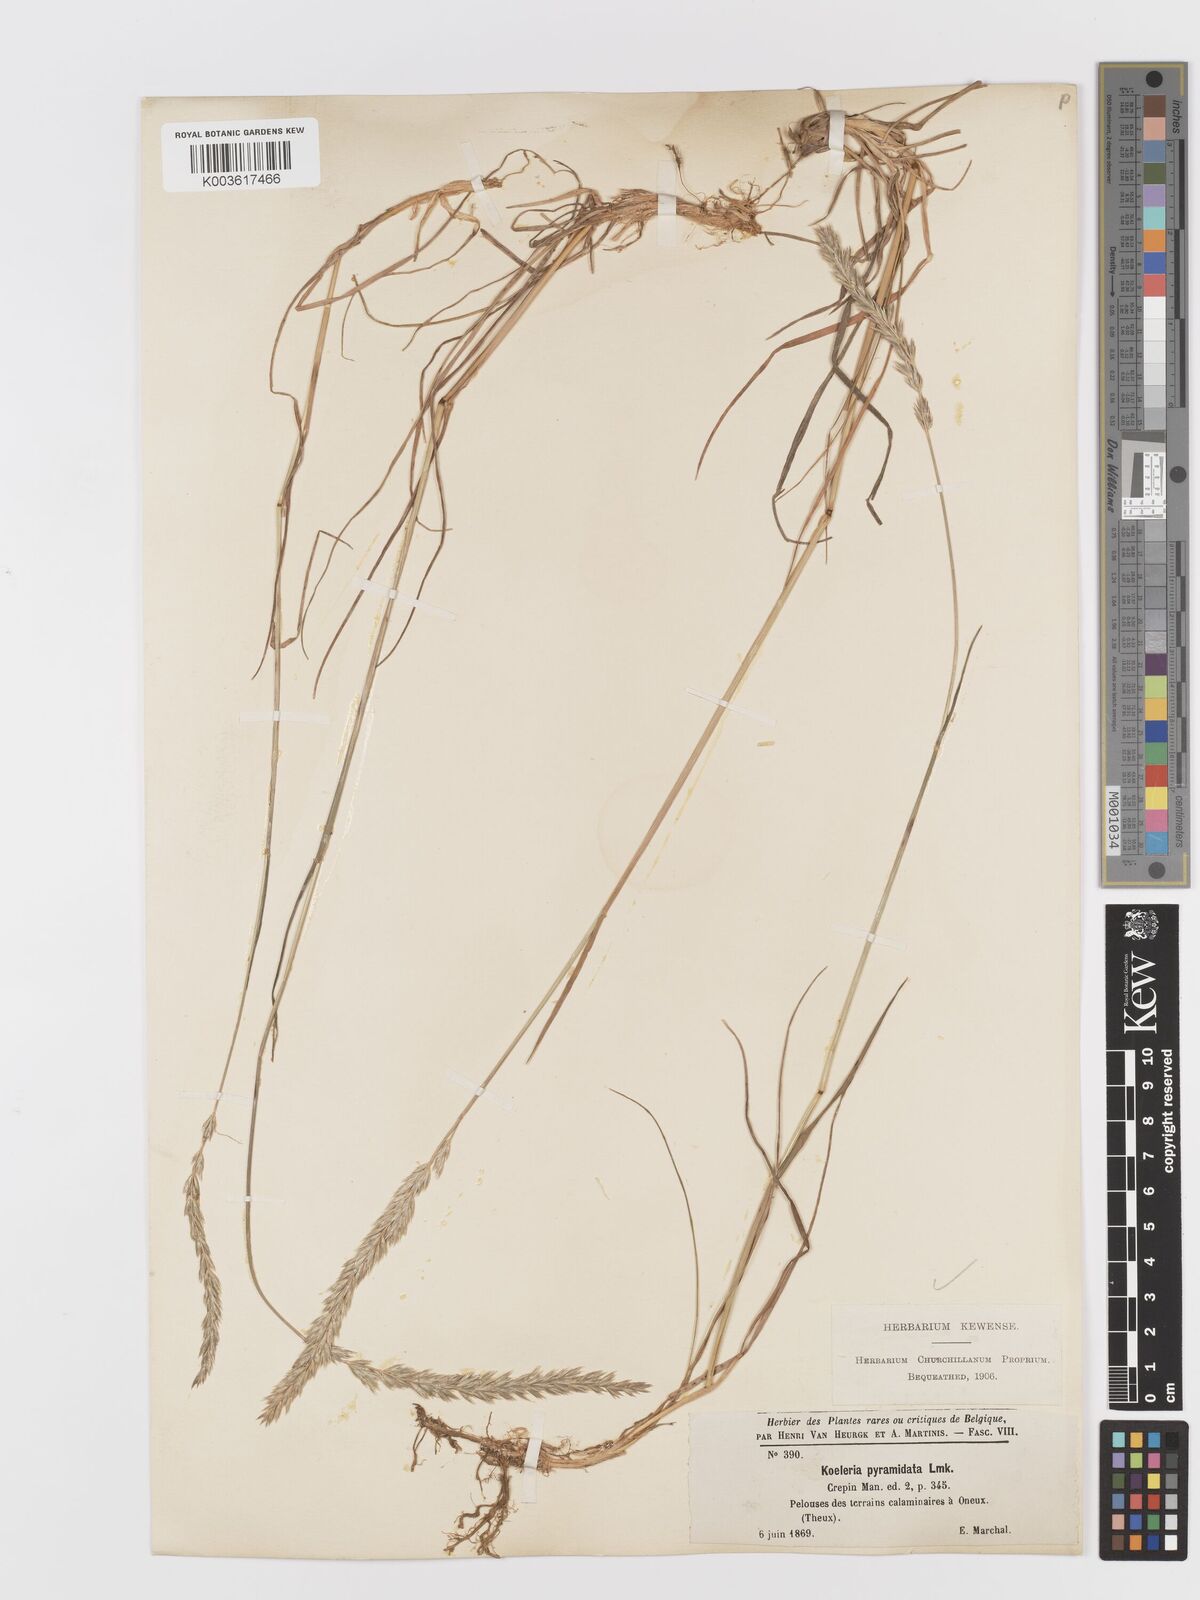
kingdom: Plantae
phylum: Tracheophyta
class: Liliopsida
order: Poales
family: Poaceae
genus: Koeleria
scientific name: Koeleria pyramidata
